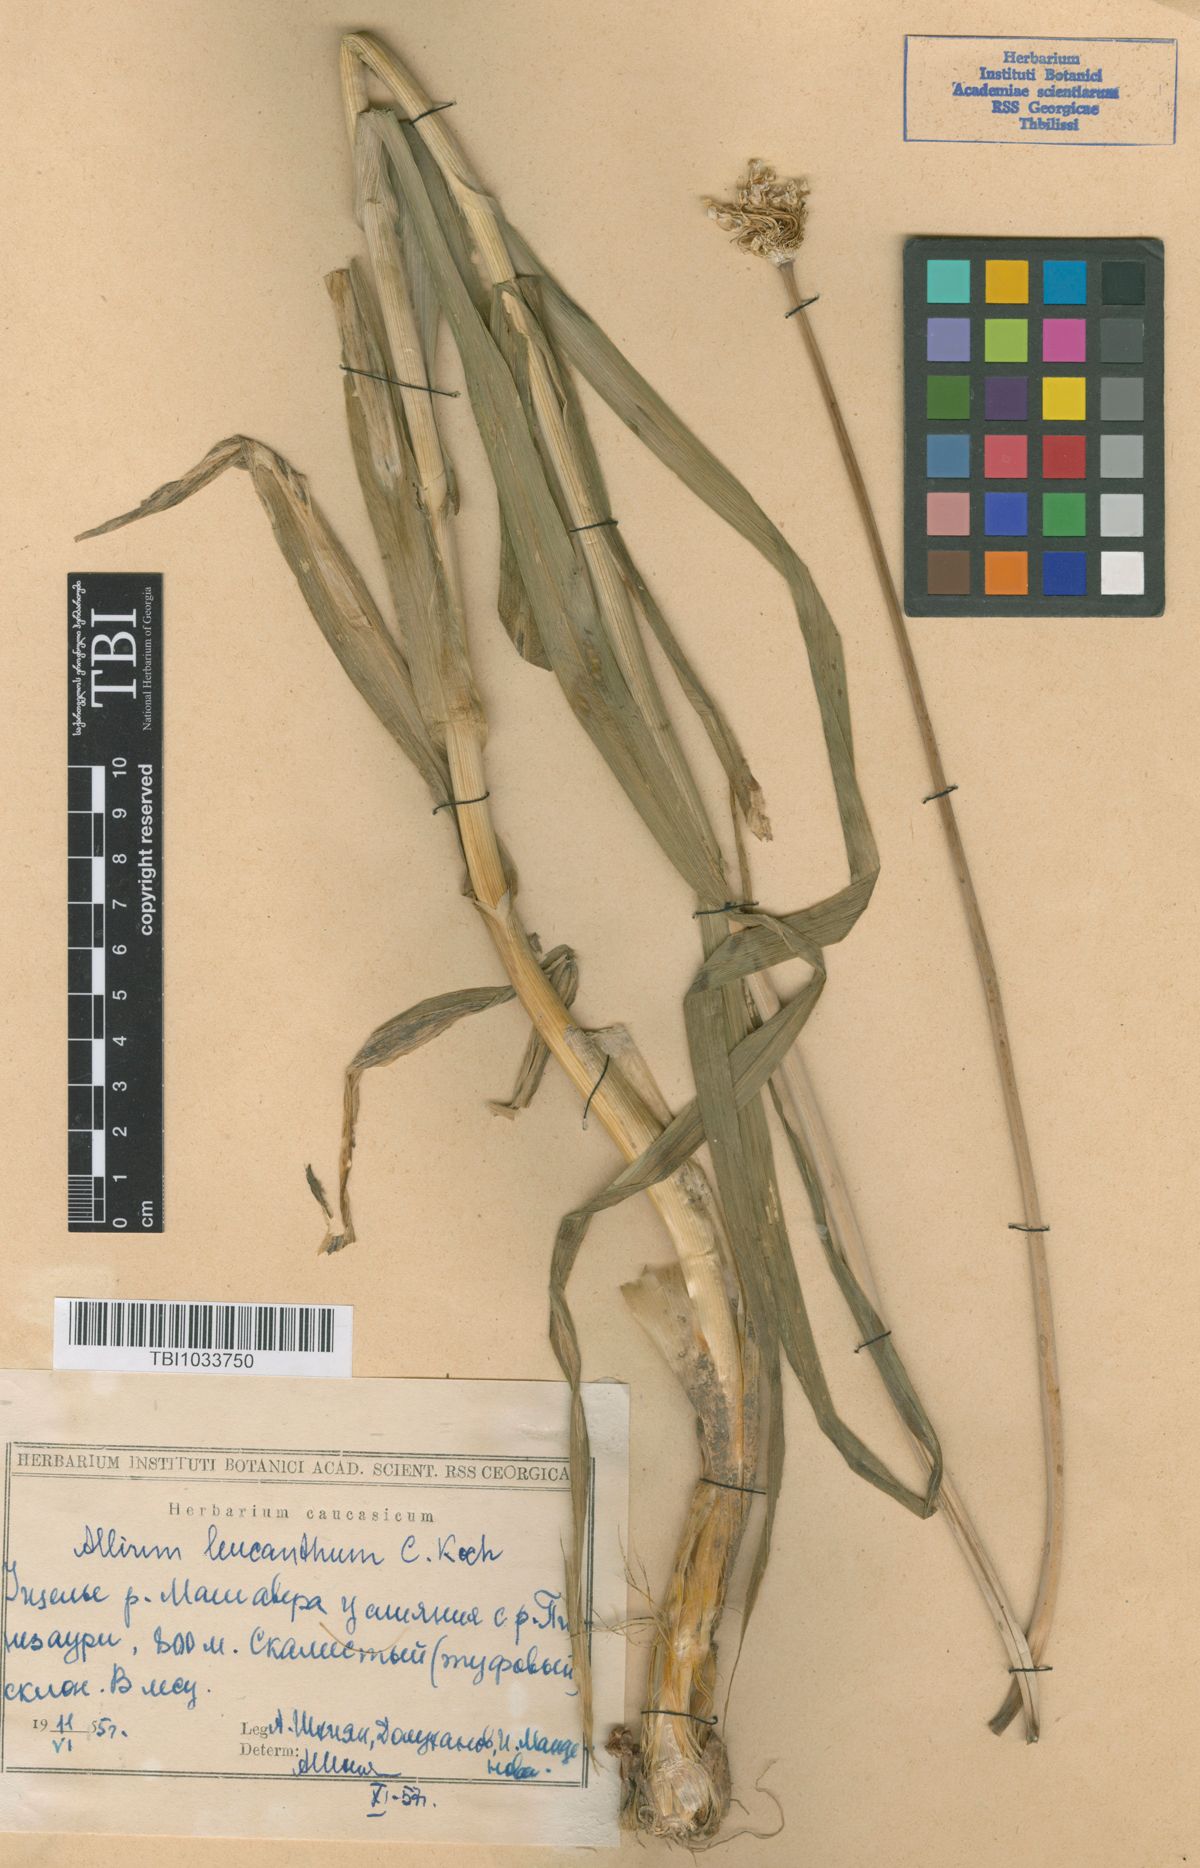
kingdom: Plantae
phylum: Tracheophyta
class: Liliopsida
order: Asparagales
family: Amaryllidaceae
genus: Allium
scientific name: Allium ampeloprasum
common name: Wild leek
